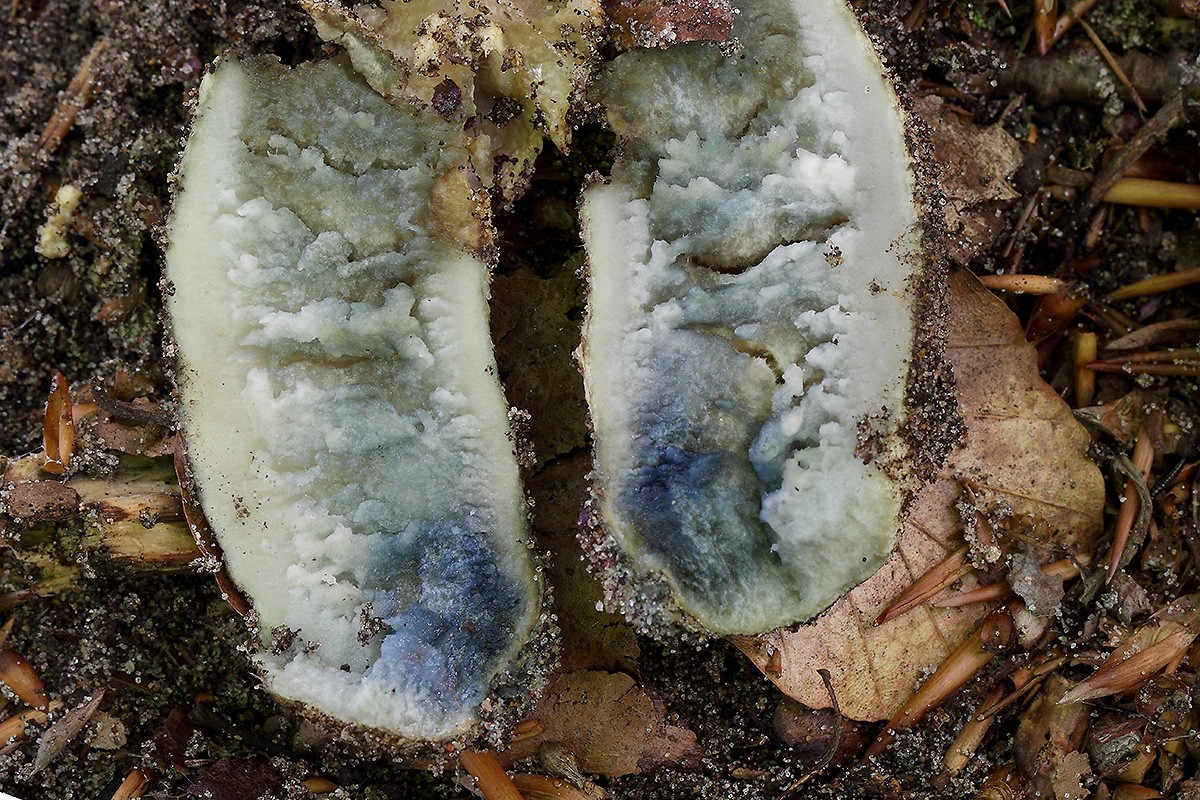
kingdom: Fungi
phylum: Basidiomycota
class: Agaricomycetes
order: Boletales
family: Gyroporaceae
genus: Gyroporus
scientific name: Gyroporus cyanescens
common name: blånende kammerrørhat
